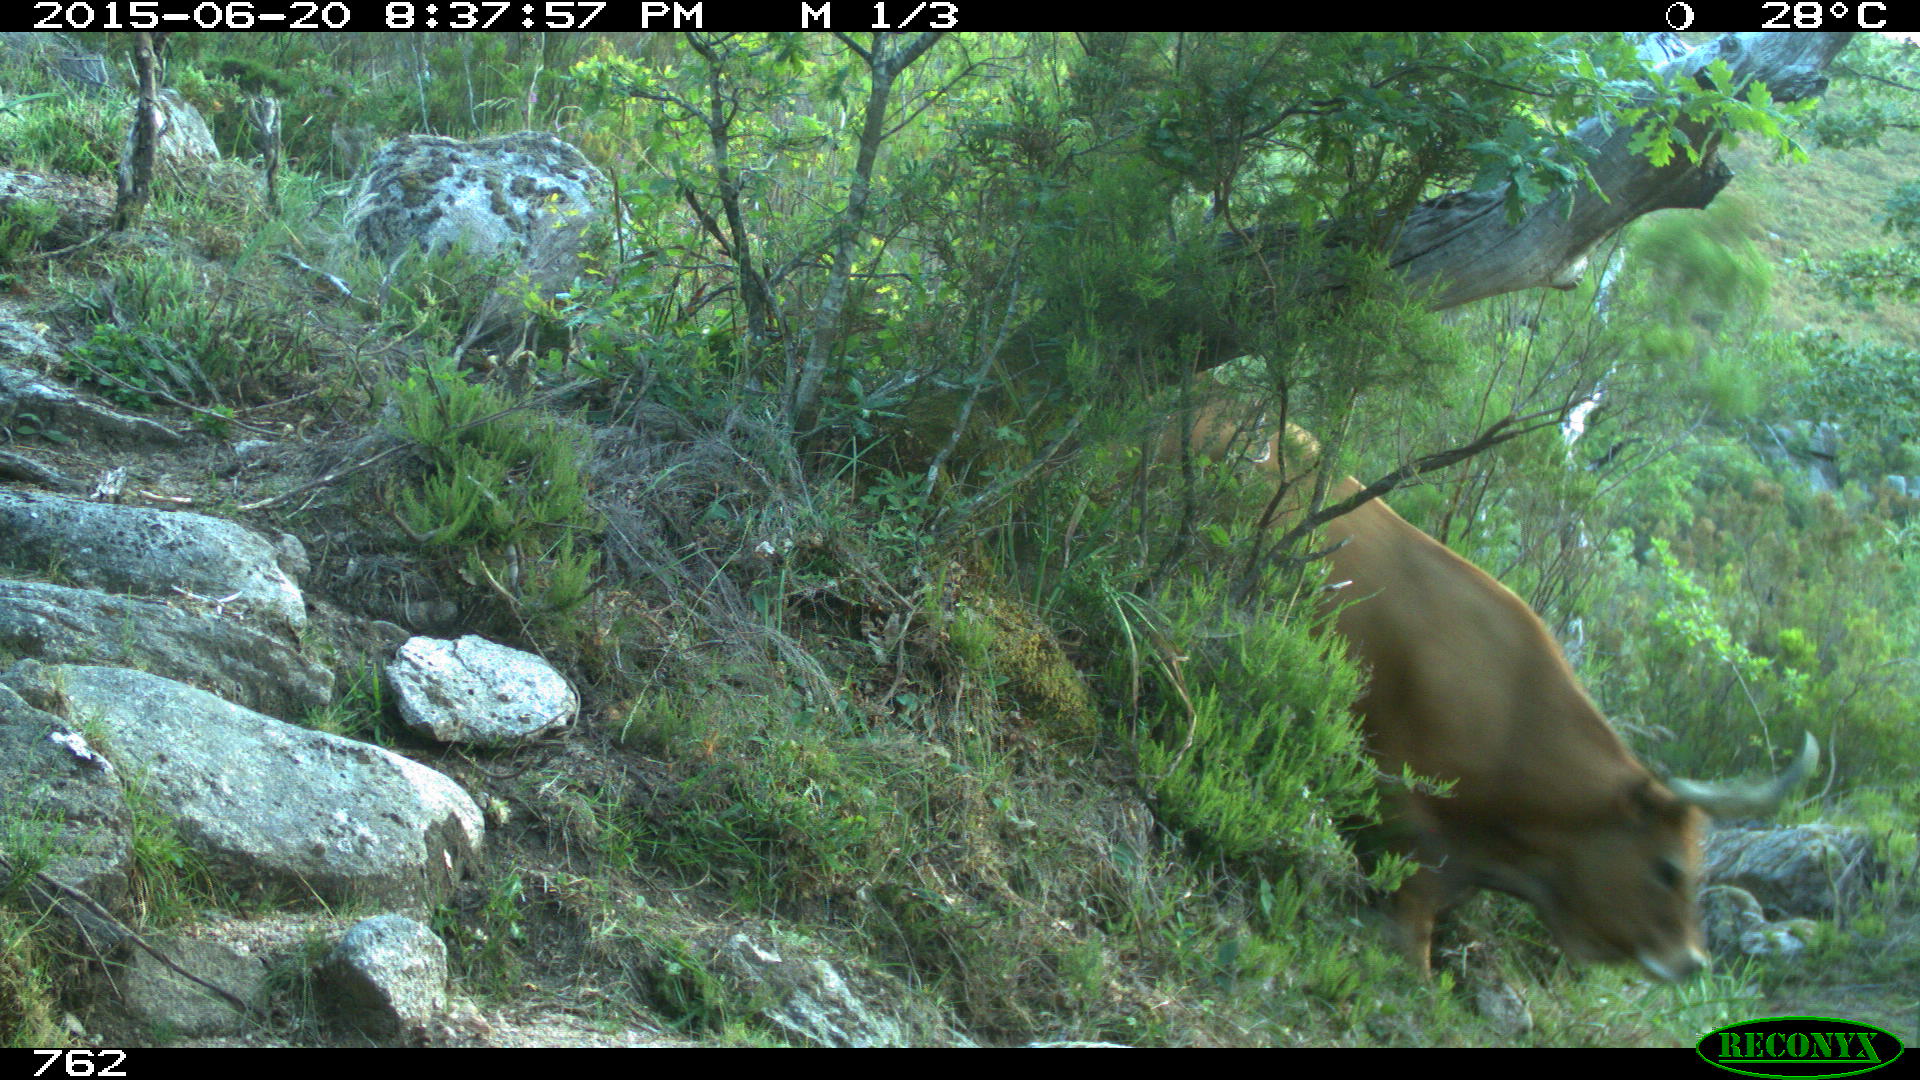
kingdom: Animalia
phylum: Chordata
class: Mammalia
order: Artiodactyla
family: Bovidae
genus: Bos
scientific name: Bos taurus
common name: Domesticated cattle
